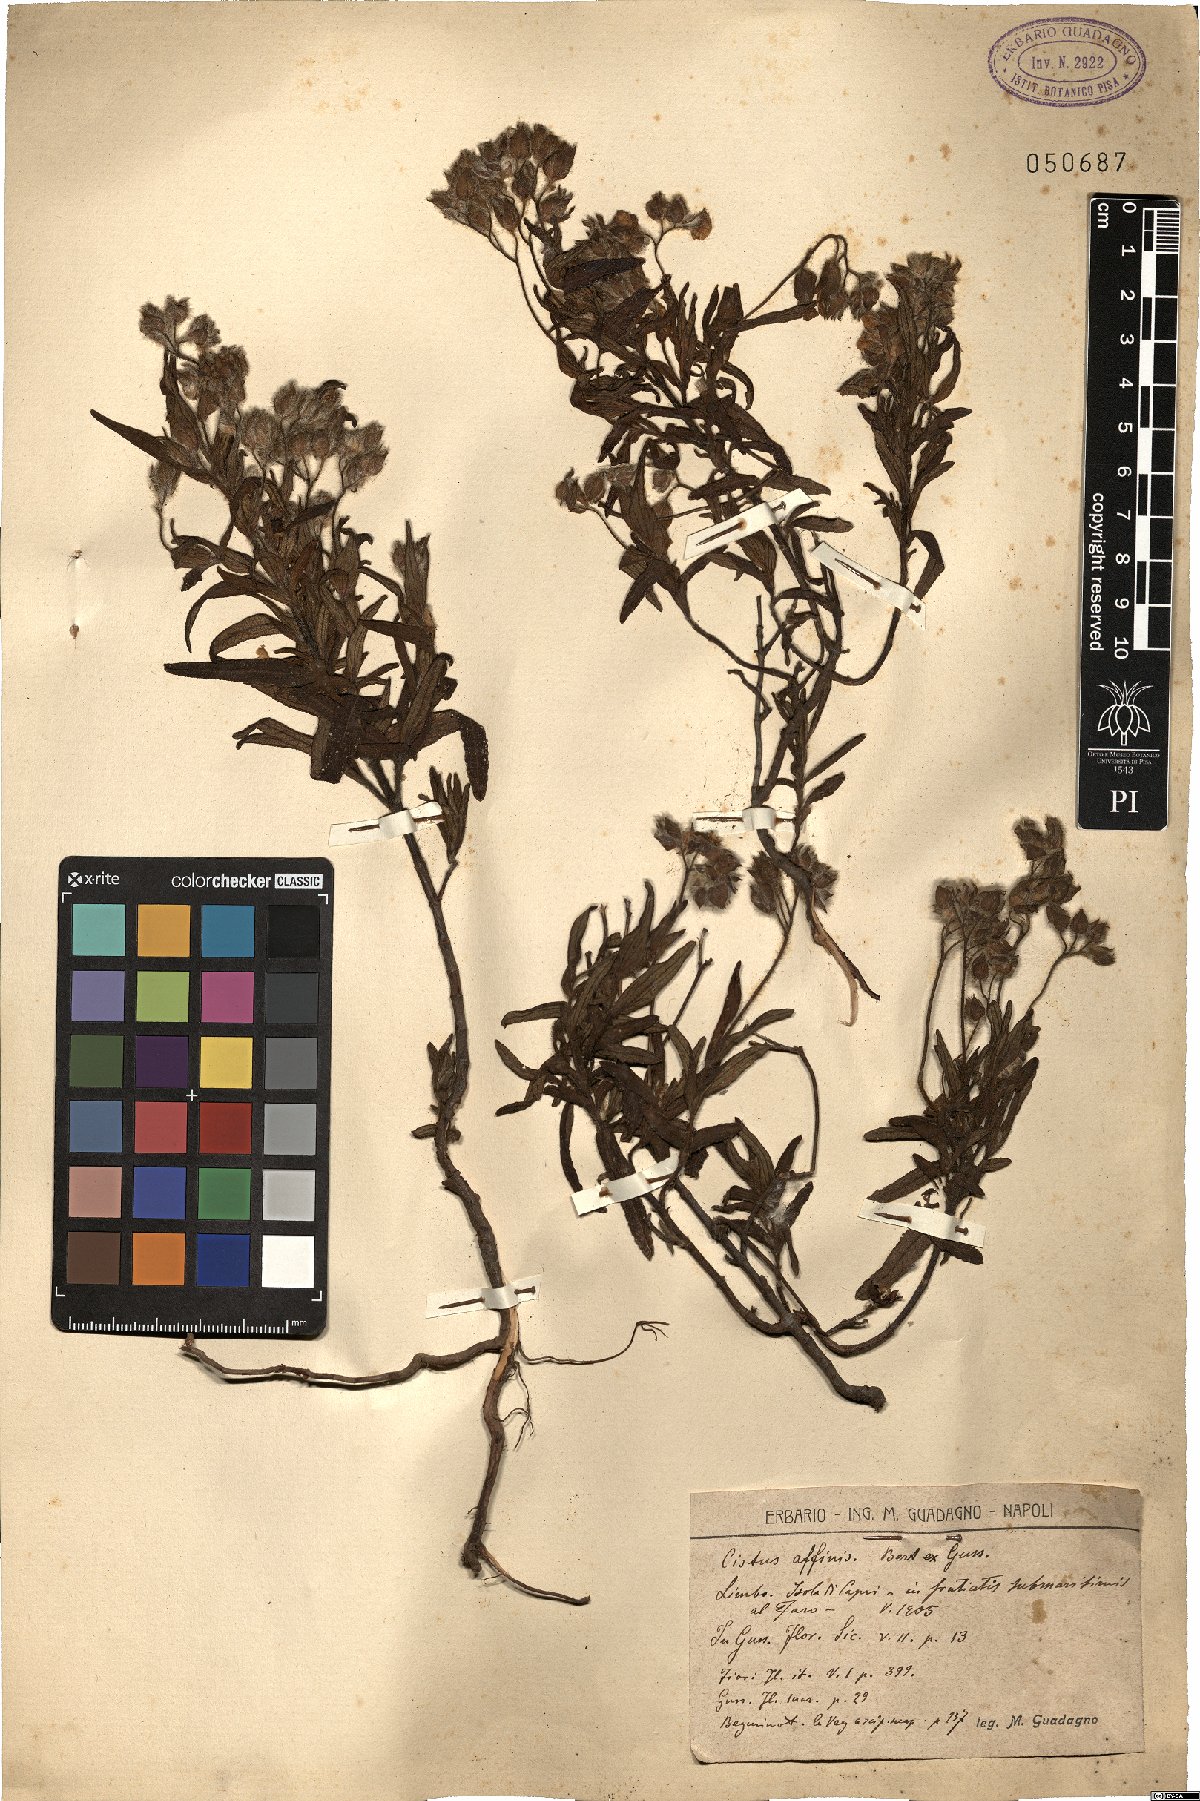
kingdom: Plantae
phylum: Tracheophyta
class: Magnoliopsida
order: Malvales
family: Cistaceae
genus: Cistus
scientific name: Cistus monspeliensis
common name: Montpelier cistus
